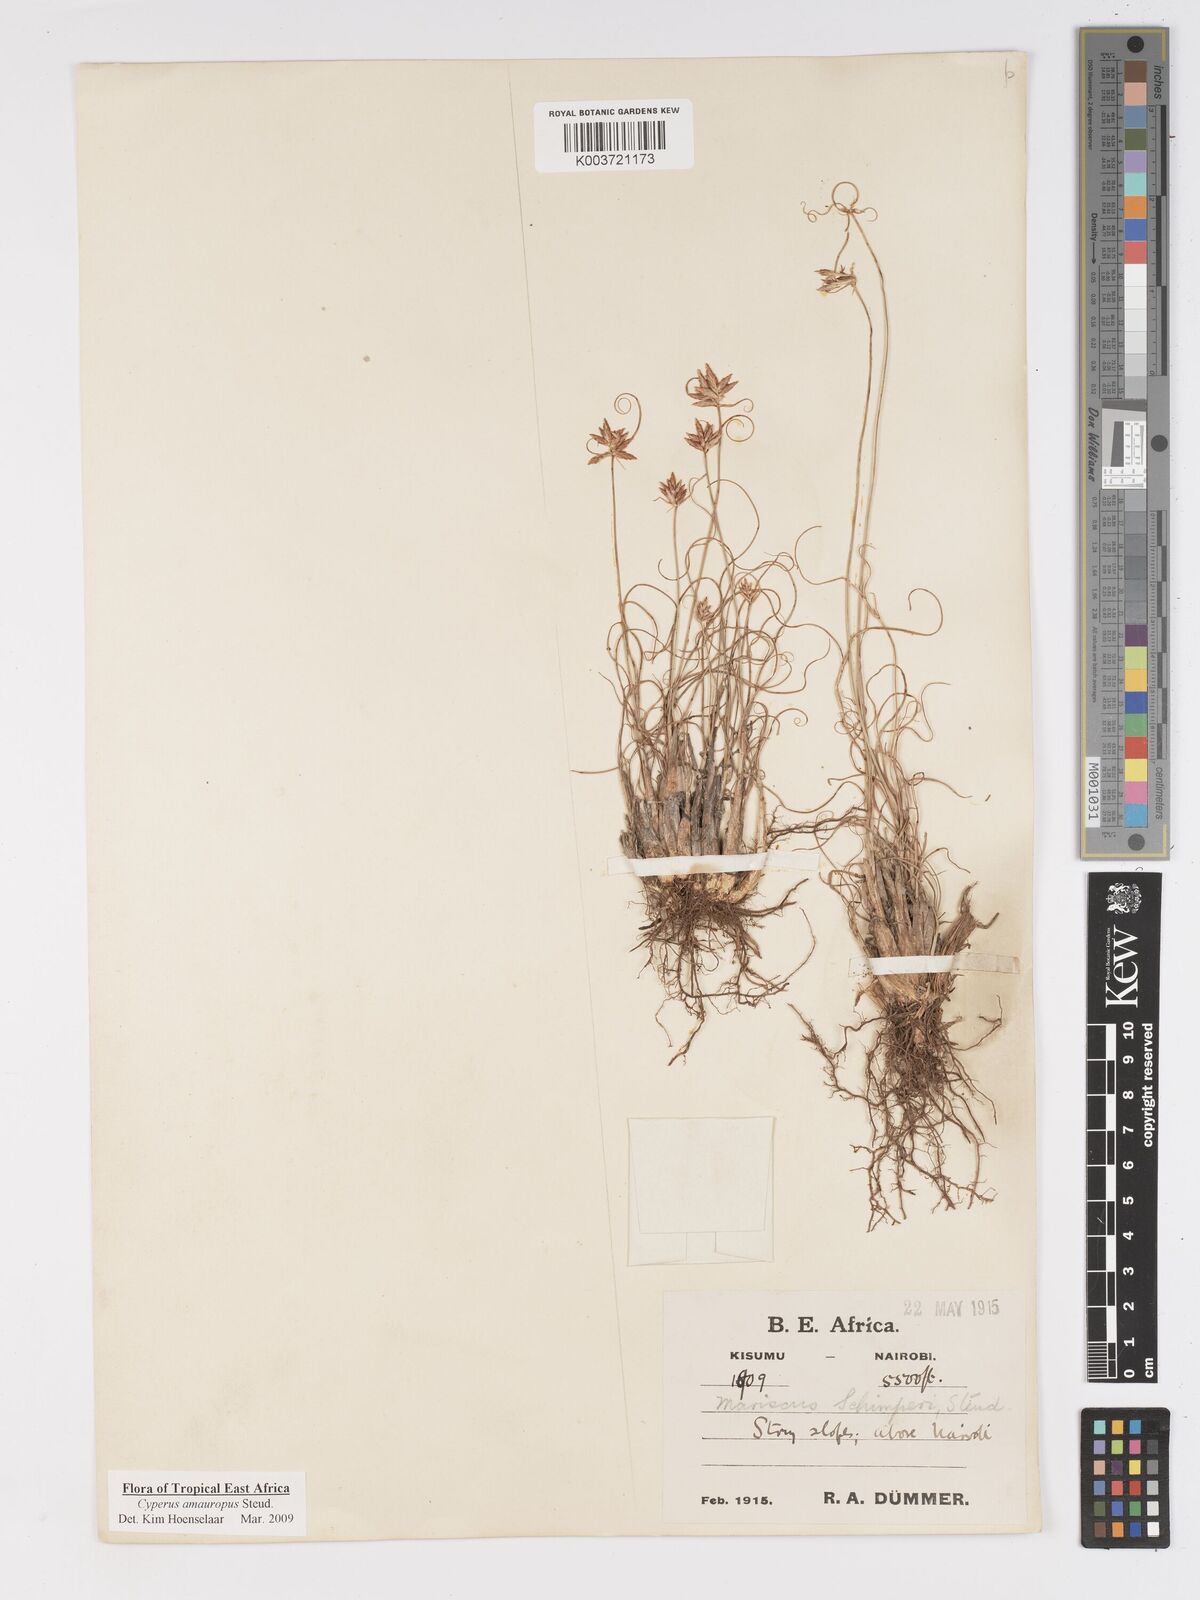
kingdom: Plantae
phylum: Tracheophyta
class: Liliopsida
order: Poales
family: Cyperaceae
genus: Cyperus
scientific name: Cyperus amauropus
